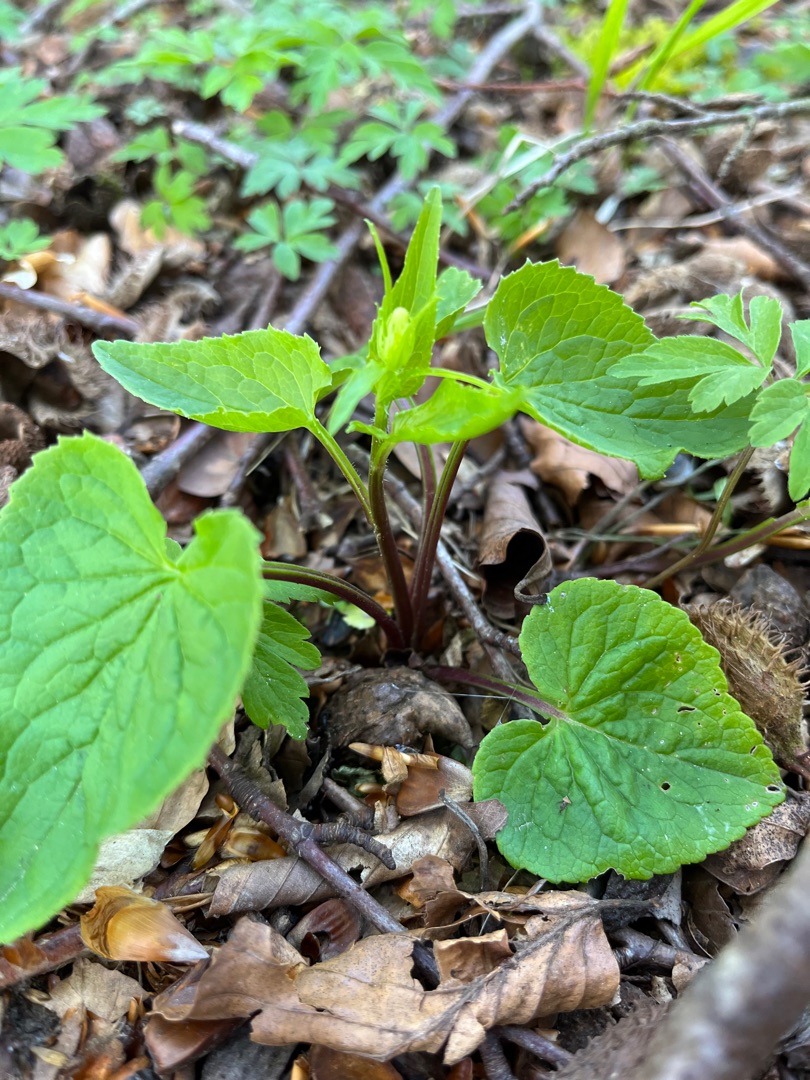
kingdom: Plantae
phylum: Tracheophyta
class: Magnoliopsida
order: Asterales
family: Campanulaceae
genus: Phyteuma
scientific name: Phyteuma spicatum
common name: Aks-rapunsel
